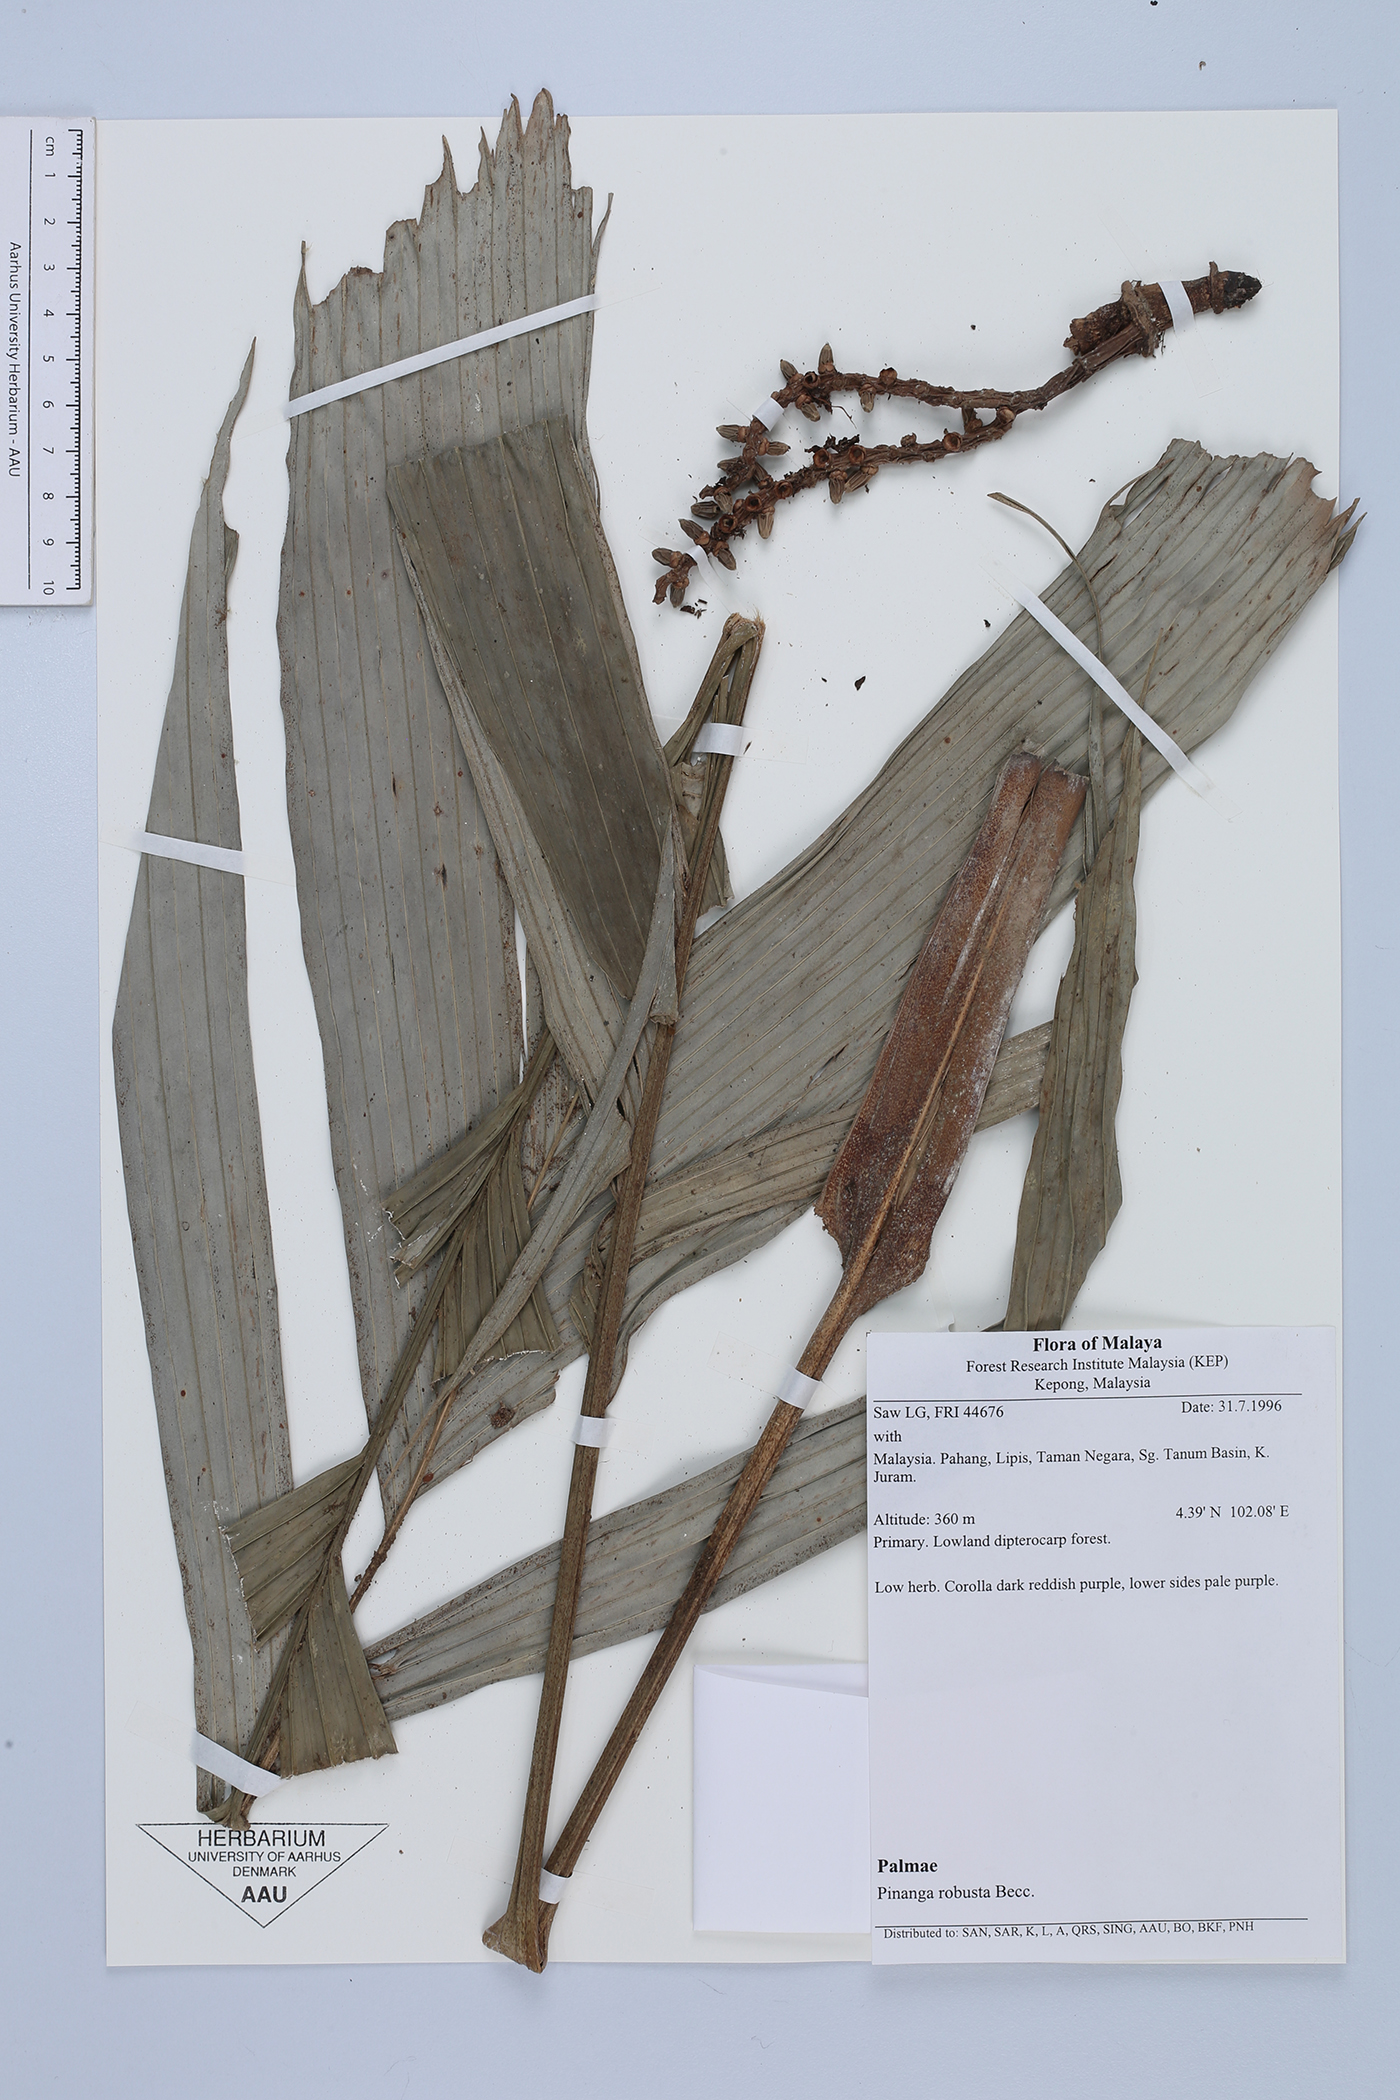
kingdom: Plantae
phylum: Tracheophyta
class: Liliopsida
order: Arecales
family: Arecaceae
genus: Pinanga
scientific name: Pinanga polymorpha
